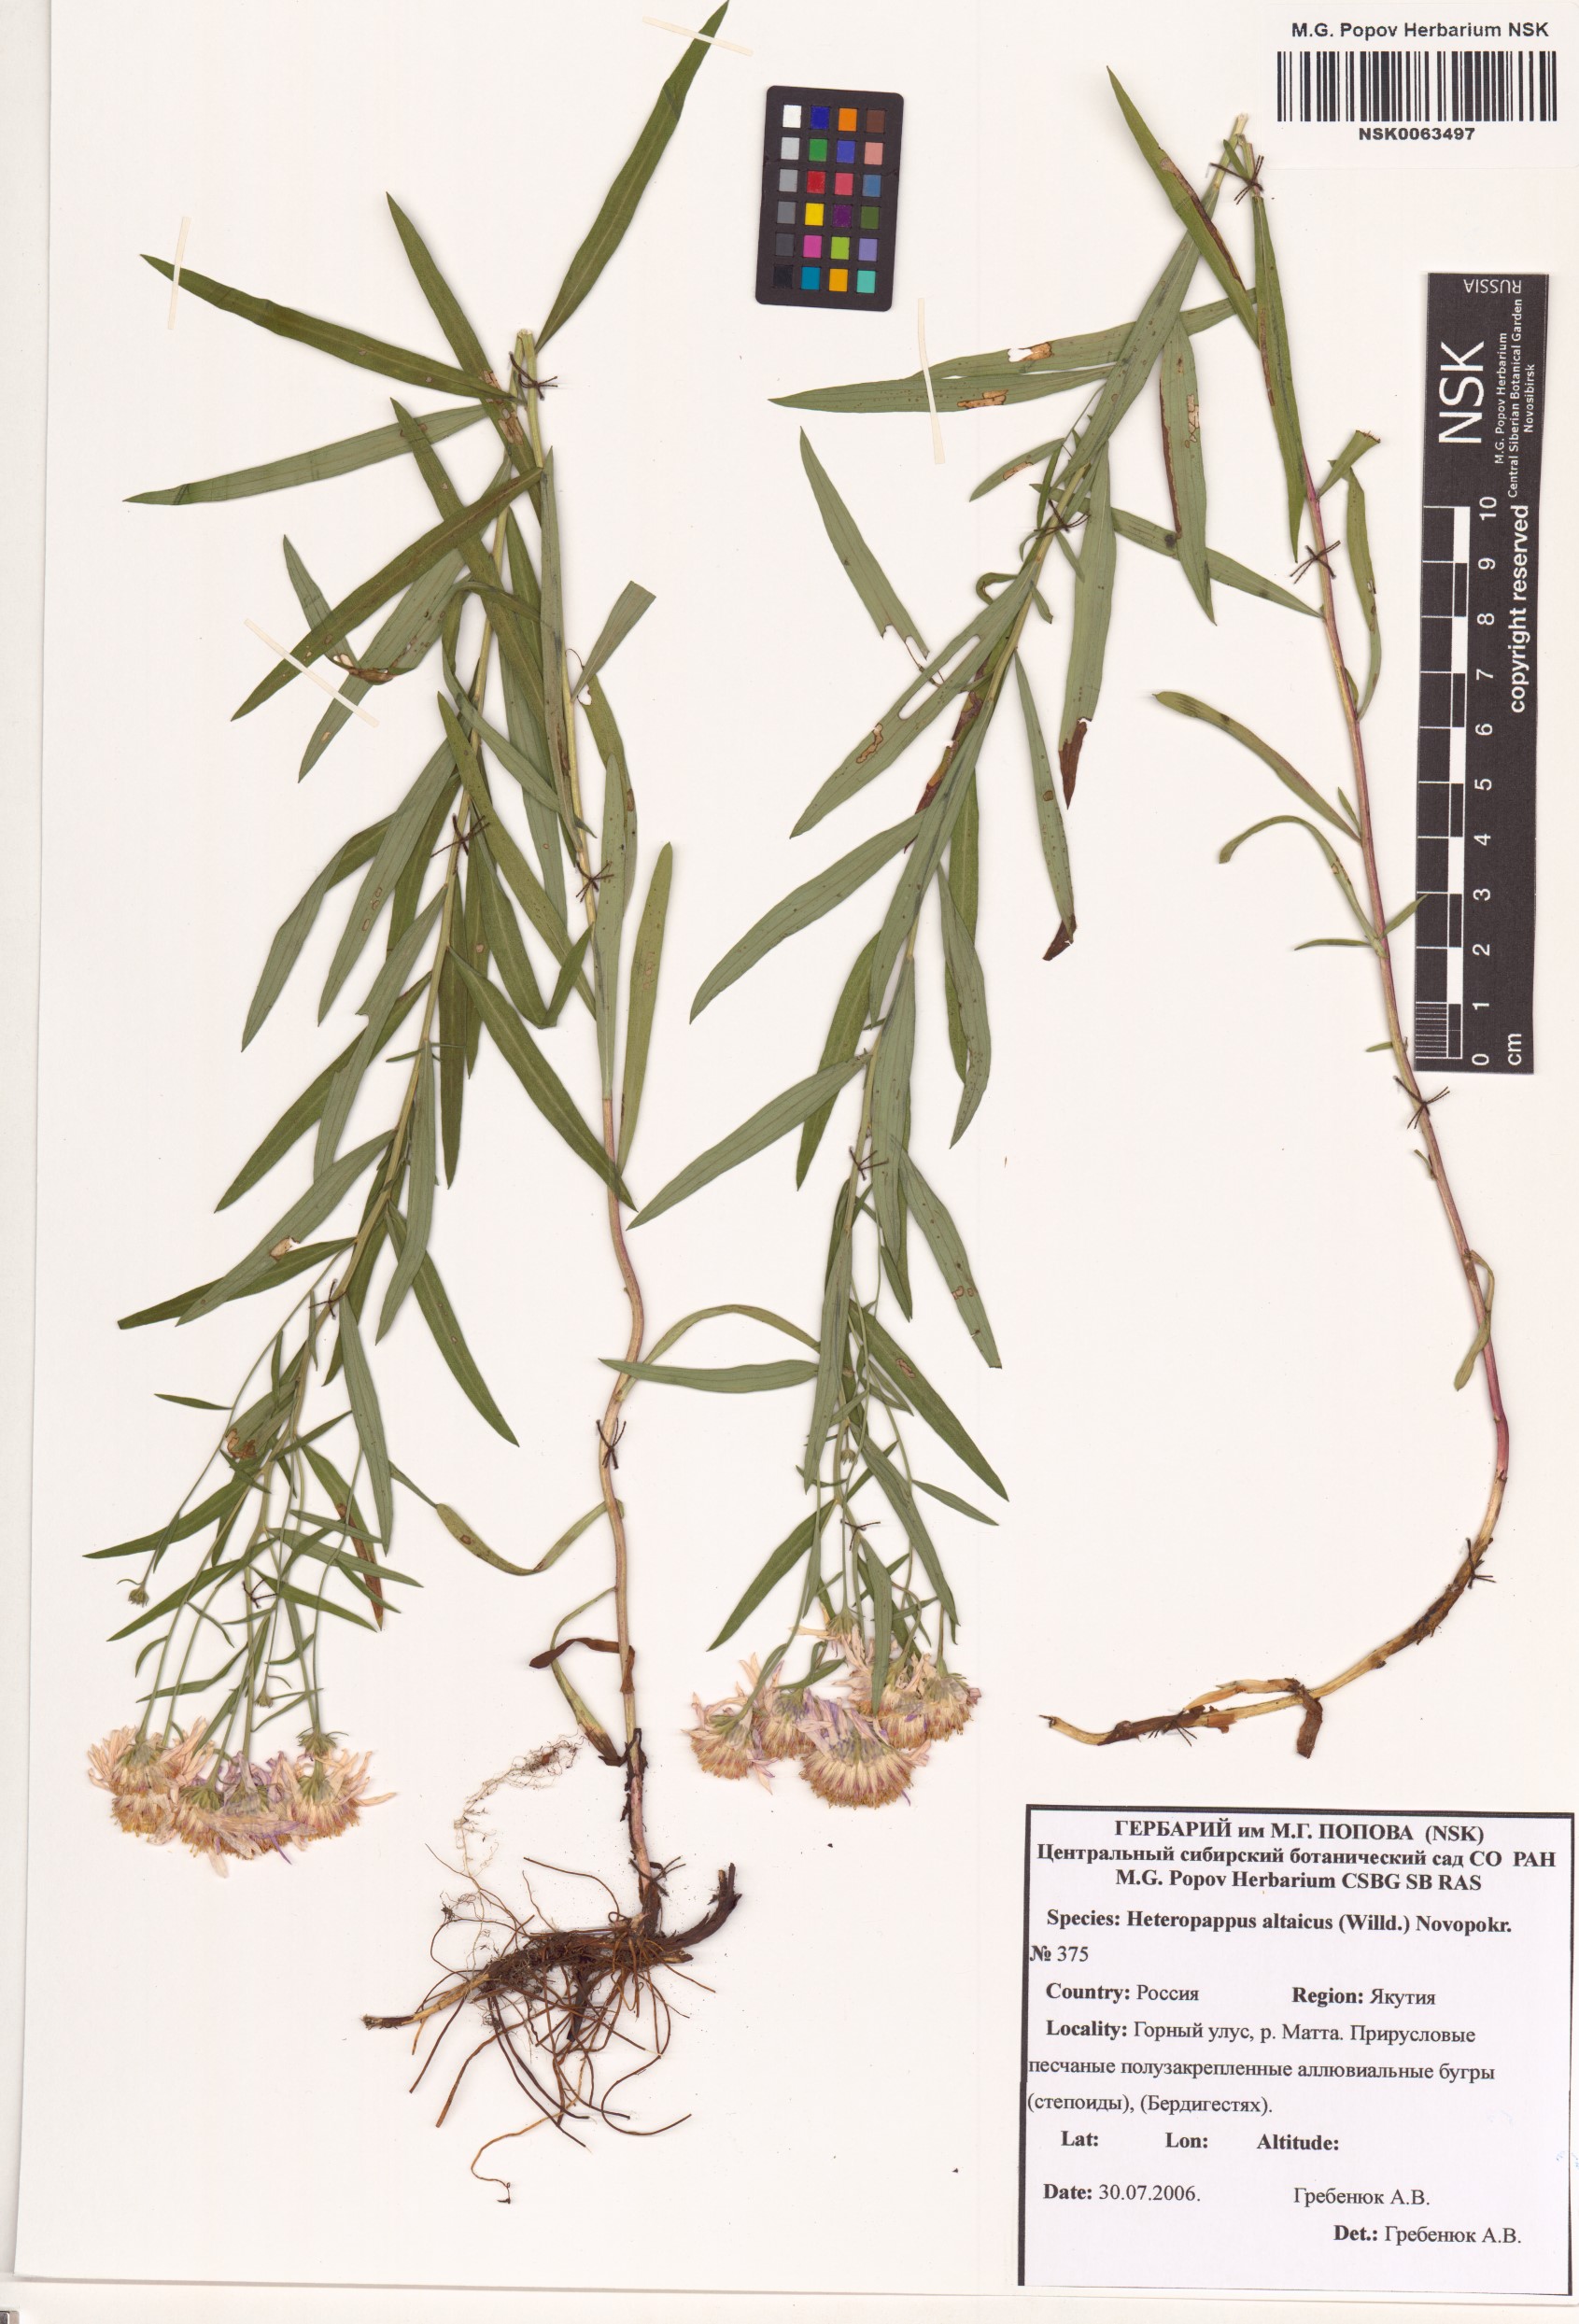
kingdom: Plantae
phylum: Tracheophyta
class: Magnoliopsida
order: Asterales
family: Asteraceae
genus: Heteropappus
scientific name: Heteropappus altaicus
